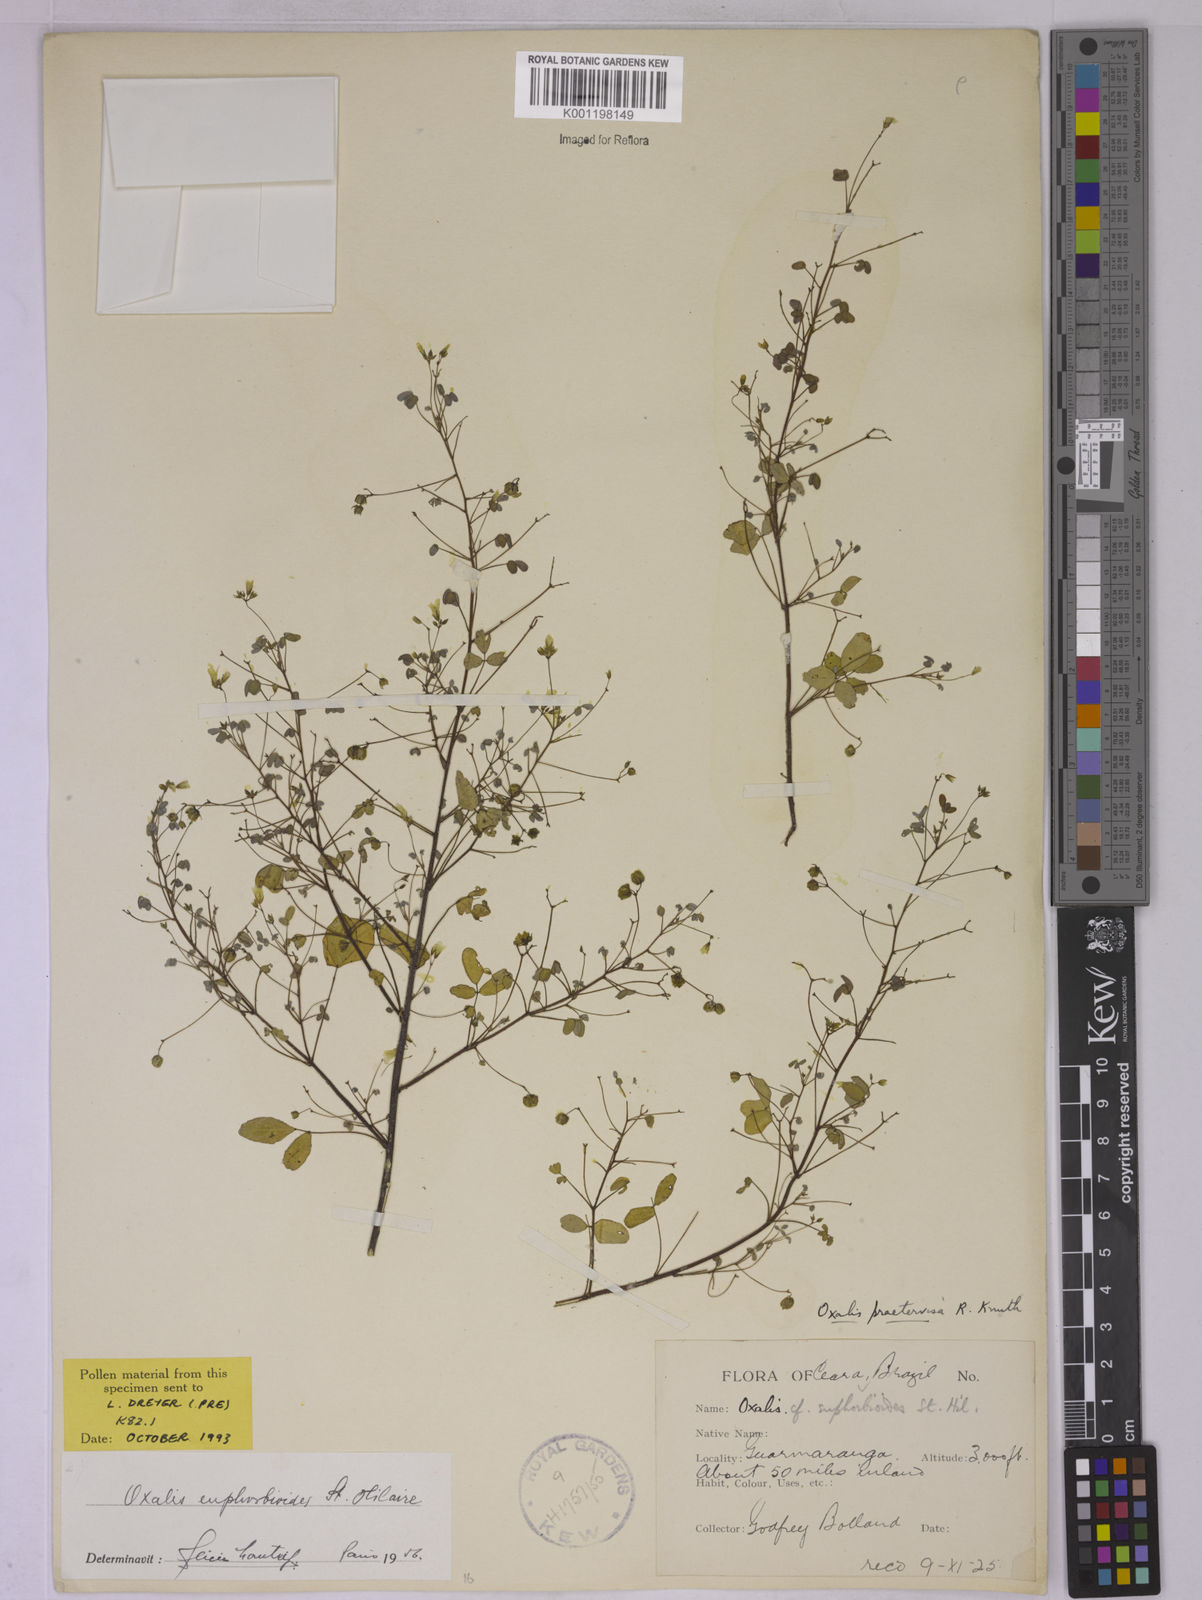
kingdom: Plantae
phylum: Tracheophyta
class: Magnoliopsida
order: Oxalidales
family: Oxalidaceae
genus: Oxalis
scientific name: Oxalis divaricata
